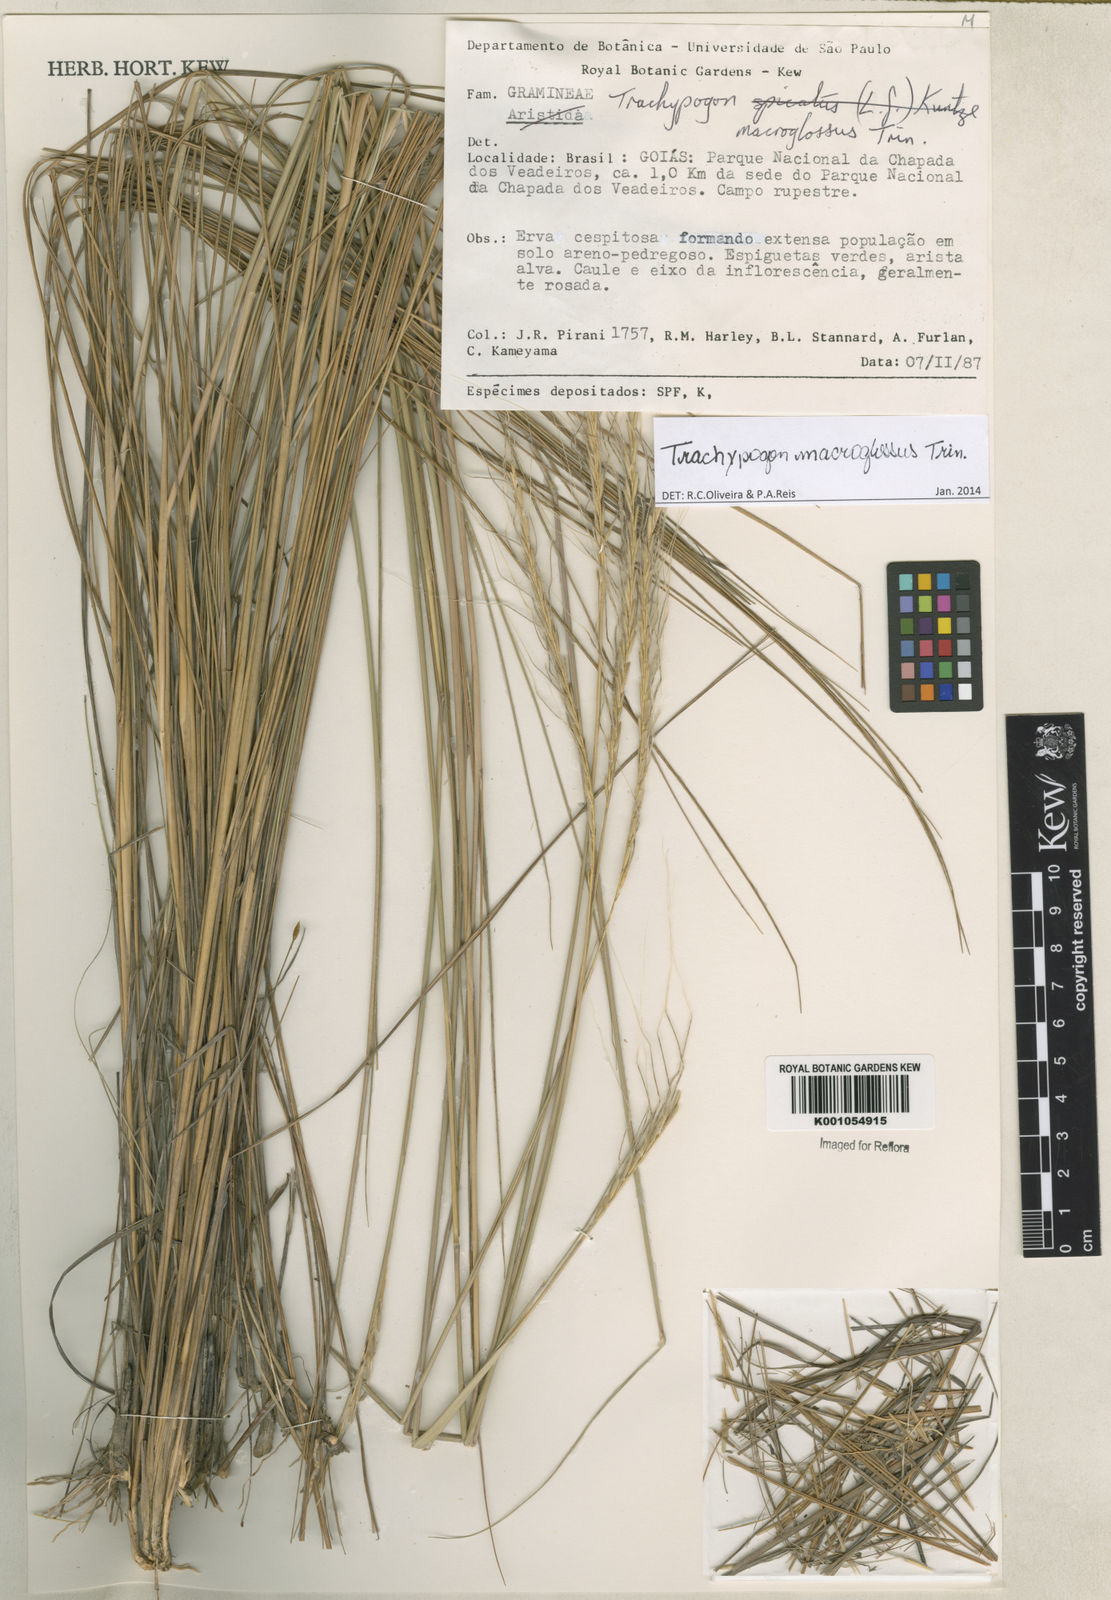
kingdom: Plantae
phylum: Tracheophyta
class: Liliopsida
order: Poales
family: Poaceae
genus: Trachypogon
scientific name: Trachypogon macroglossus
